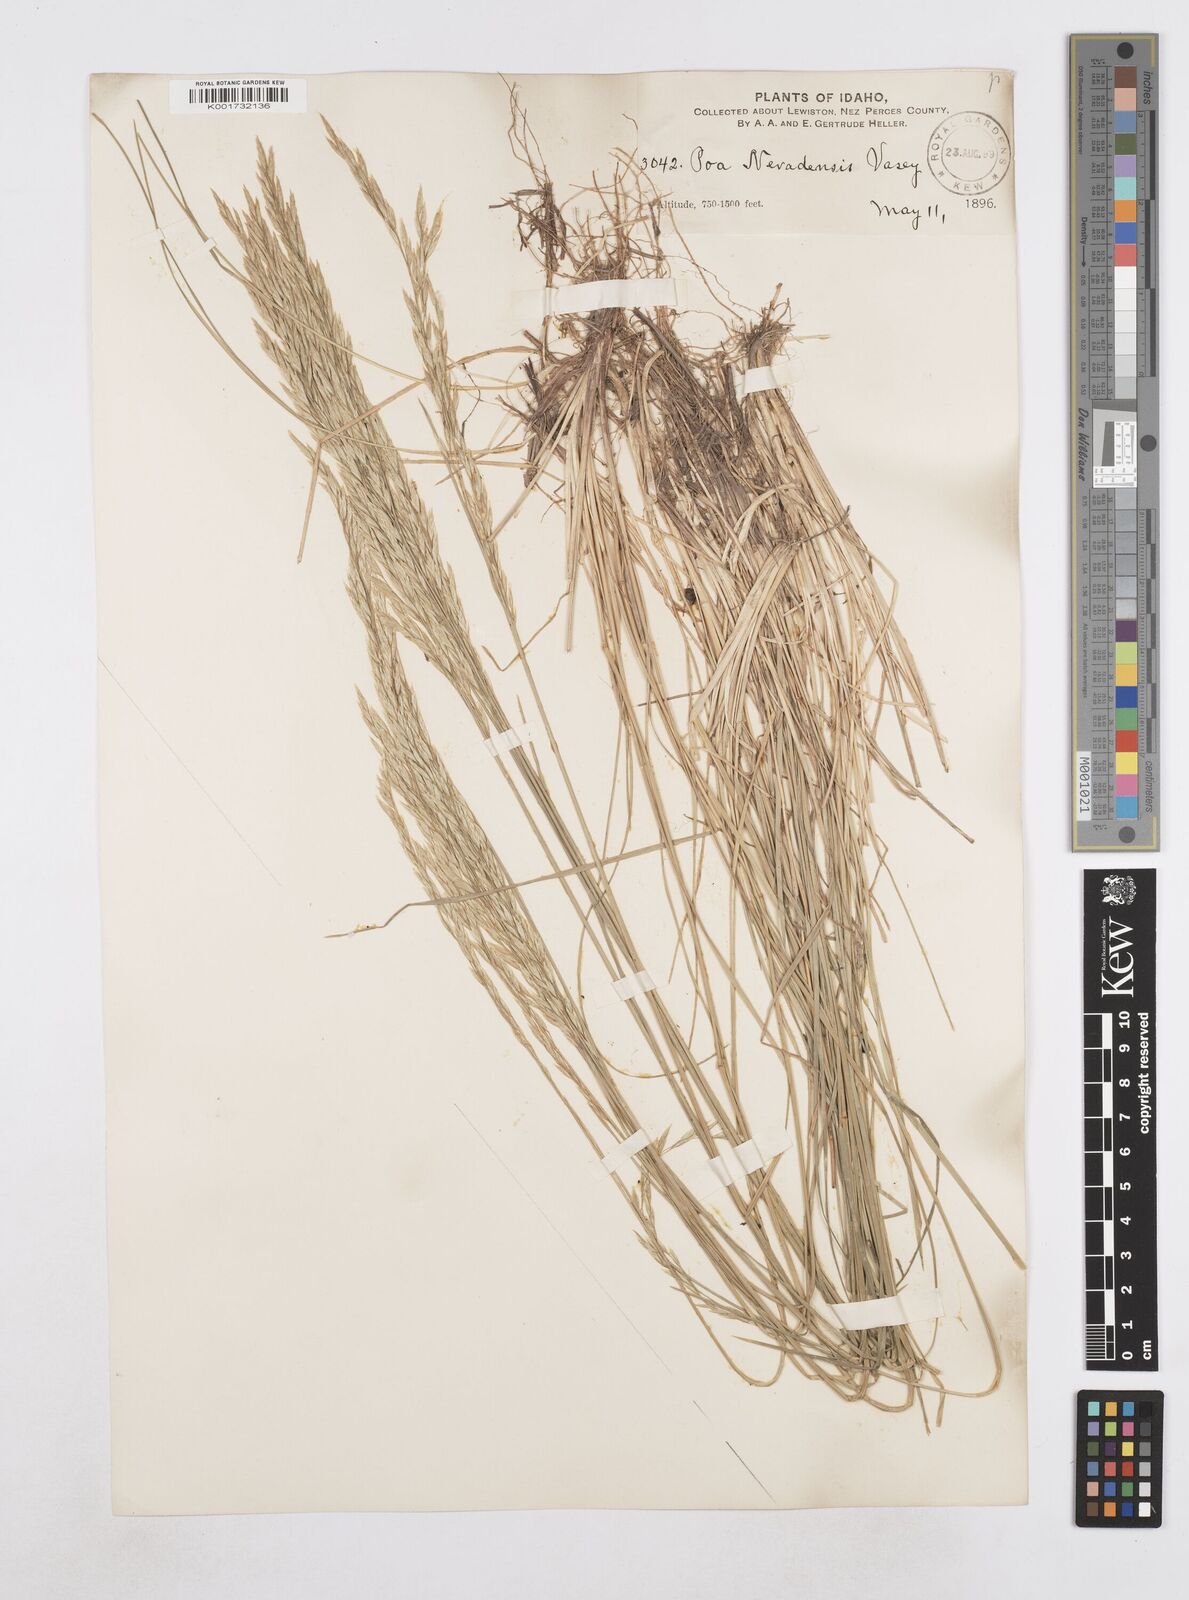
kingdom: Plantae
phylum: Tracheophyta
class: Liliopsida
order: Poales
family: Poaceae
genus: Poa
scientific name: Poa secunda
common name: Sandberg bluegrass
